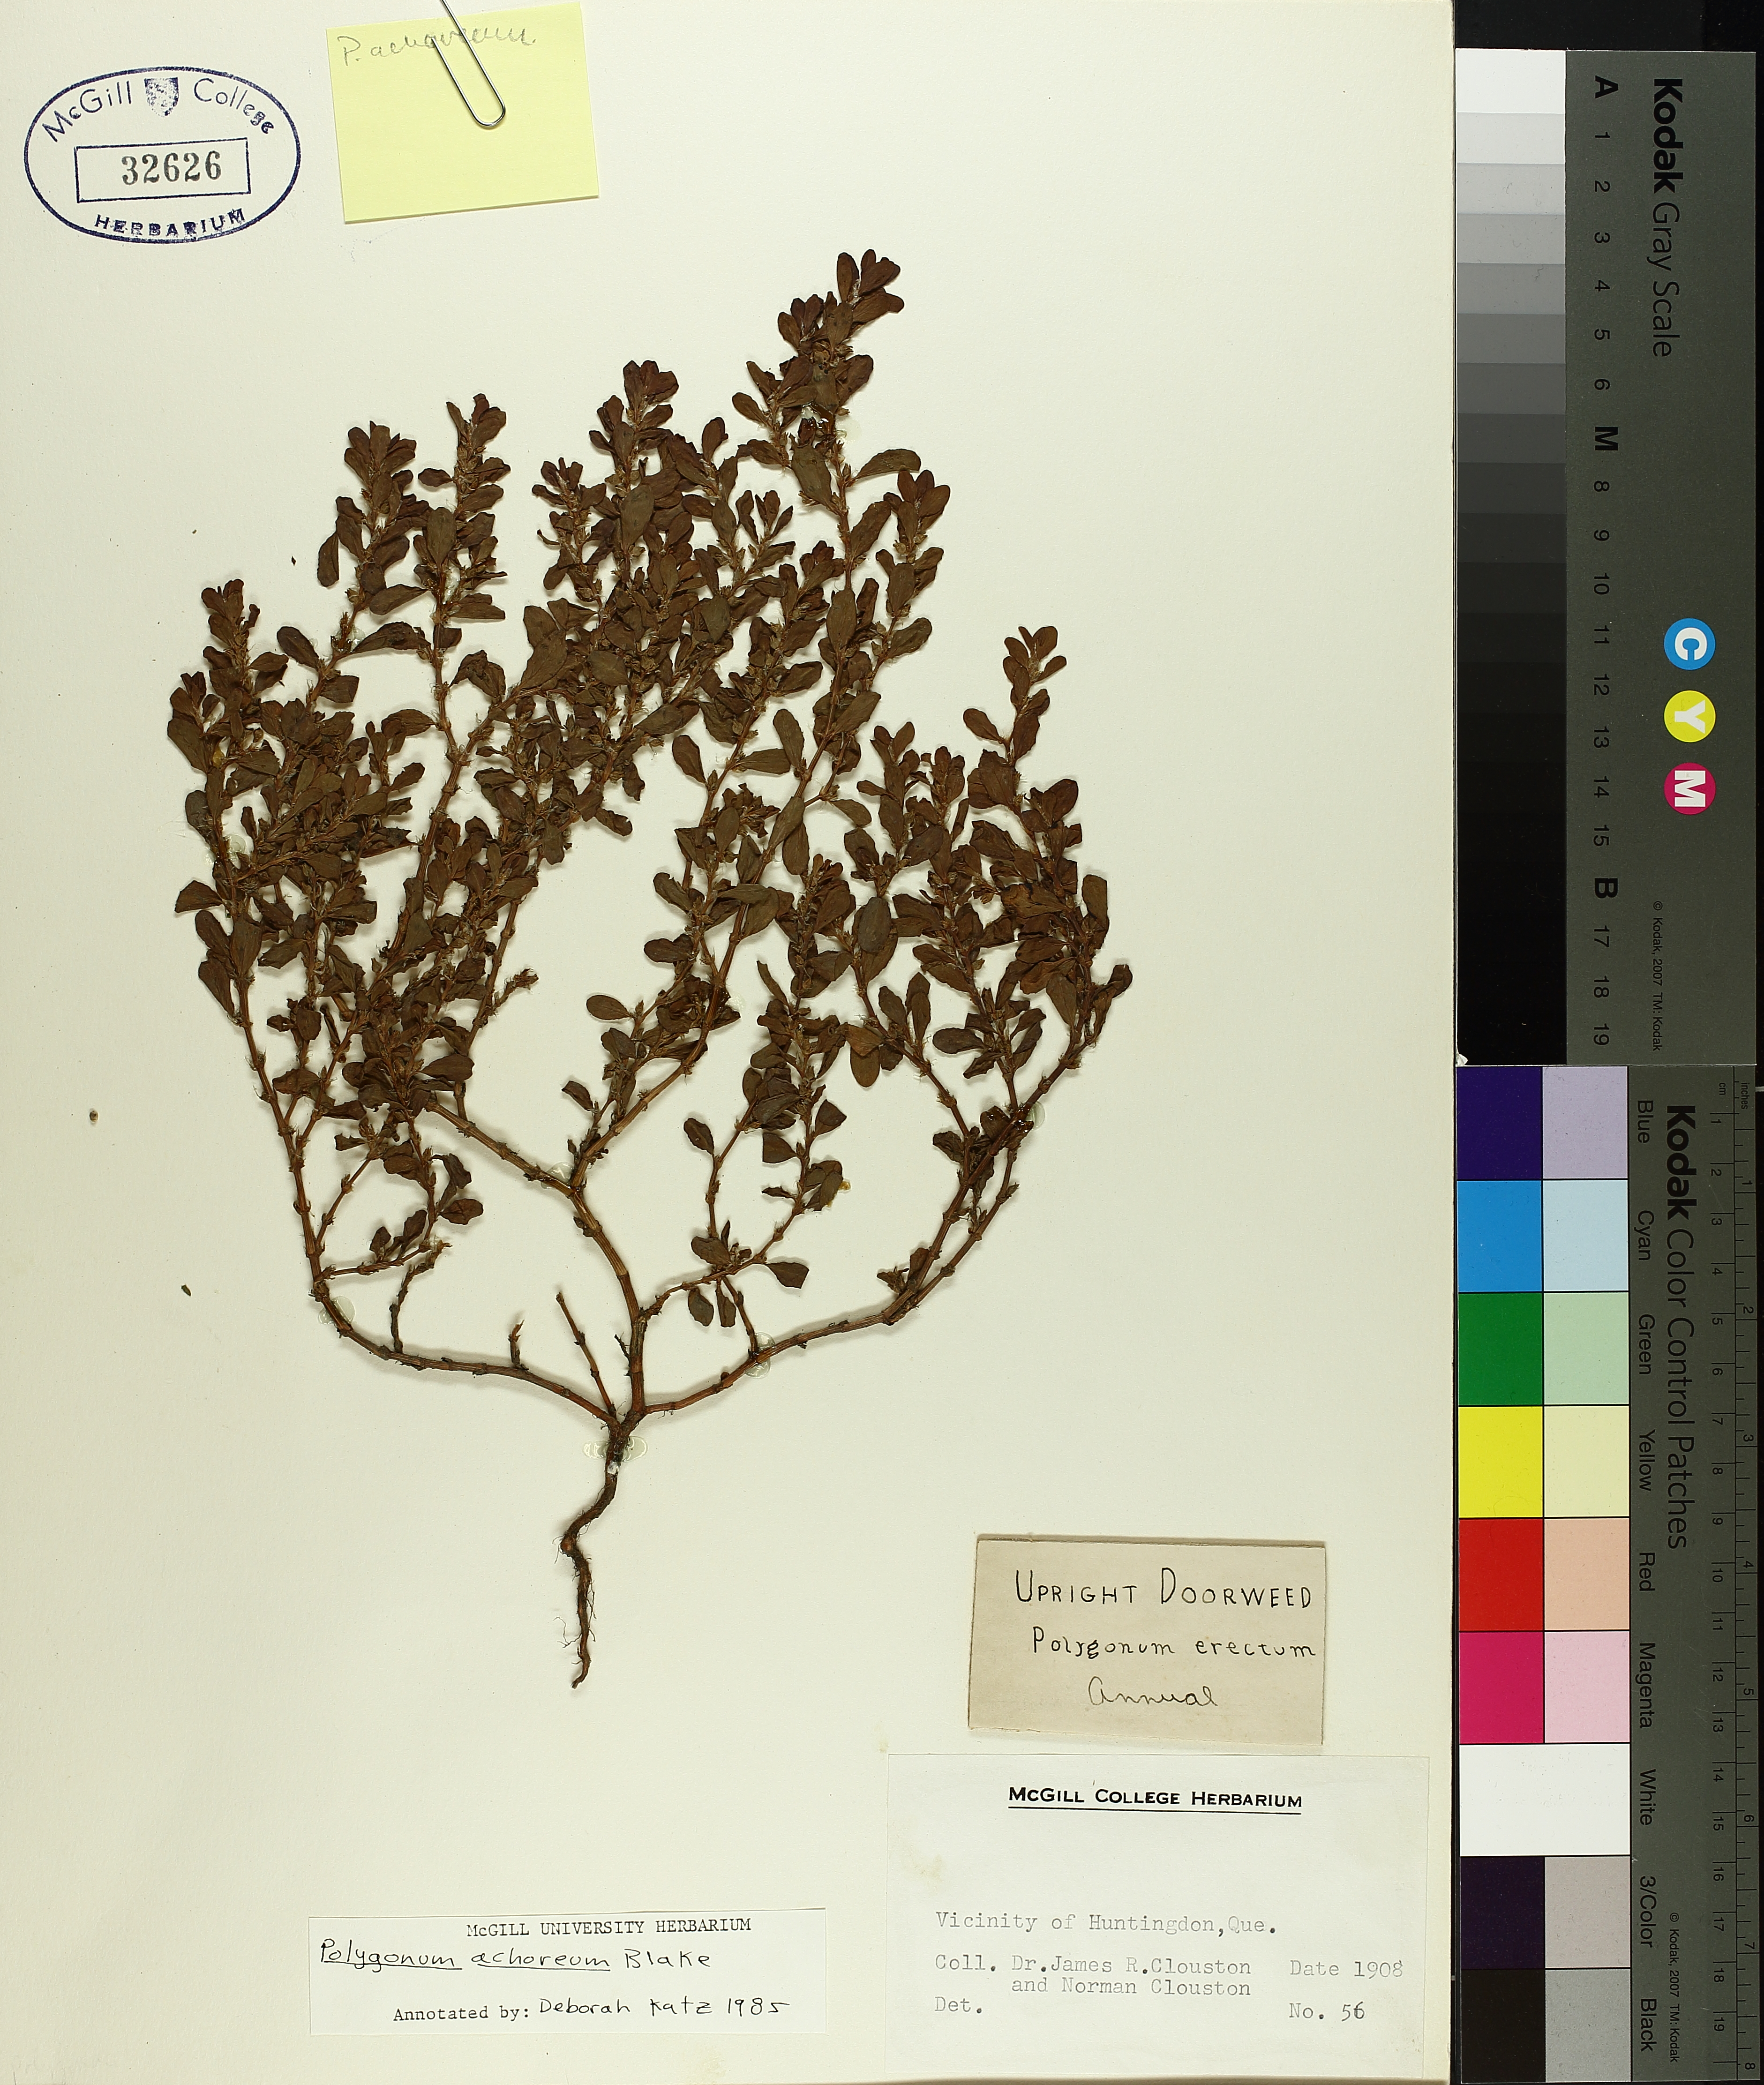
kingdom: Plantae
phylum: Tracheophyta
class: Magnoliopsida
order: Caryophyllales
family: Polygonaceae
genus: Polygonum
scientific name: Polygonum achoreum
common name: Striate knotweed
